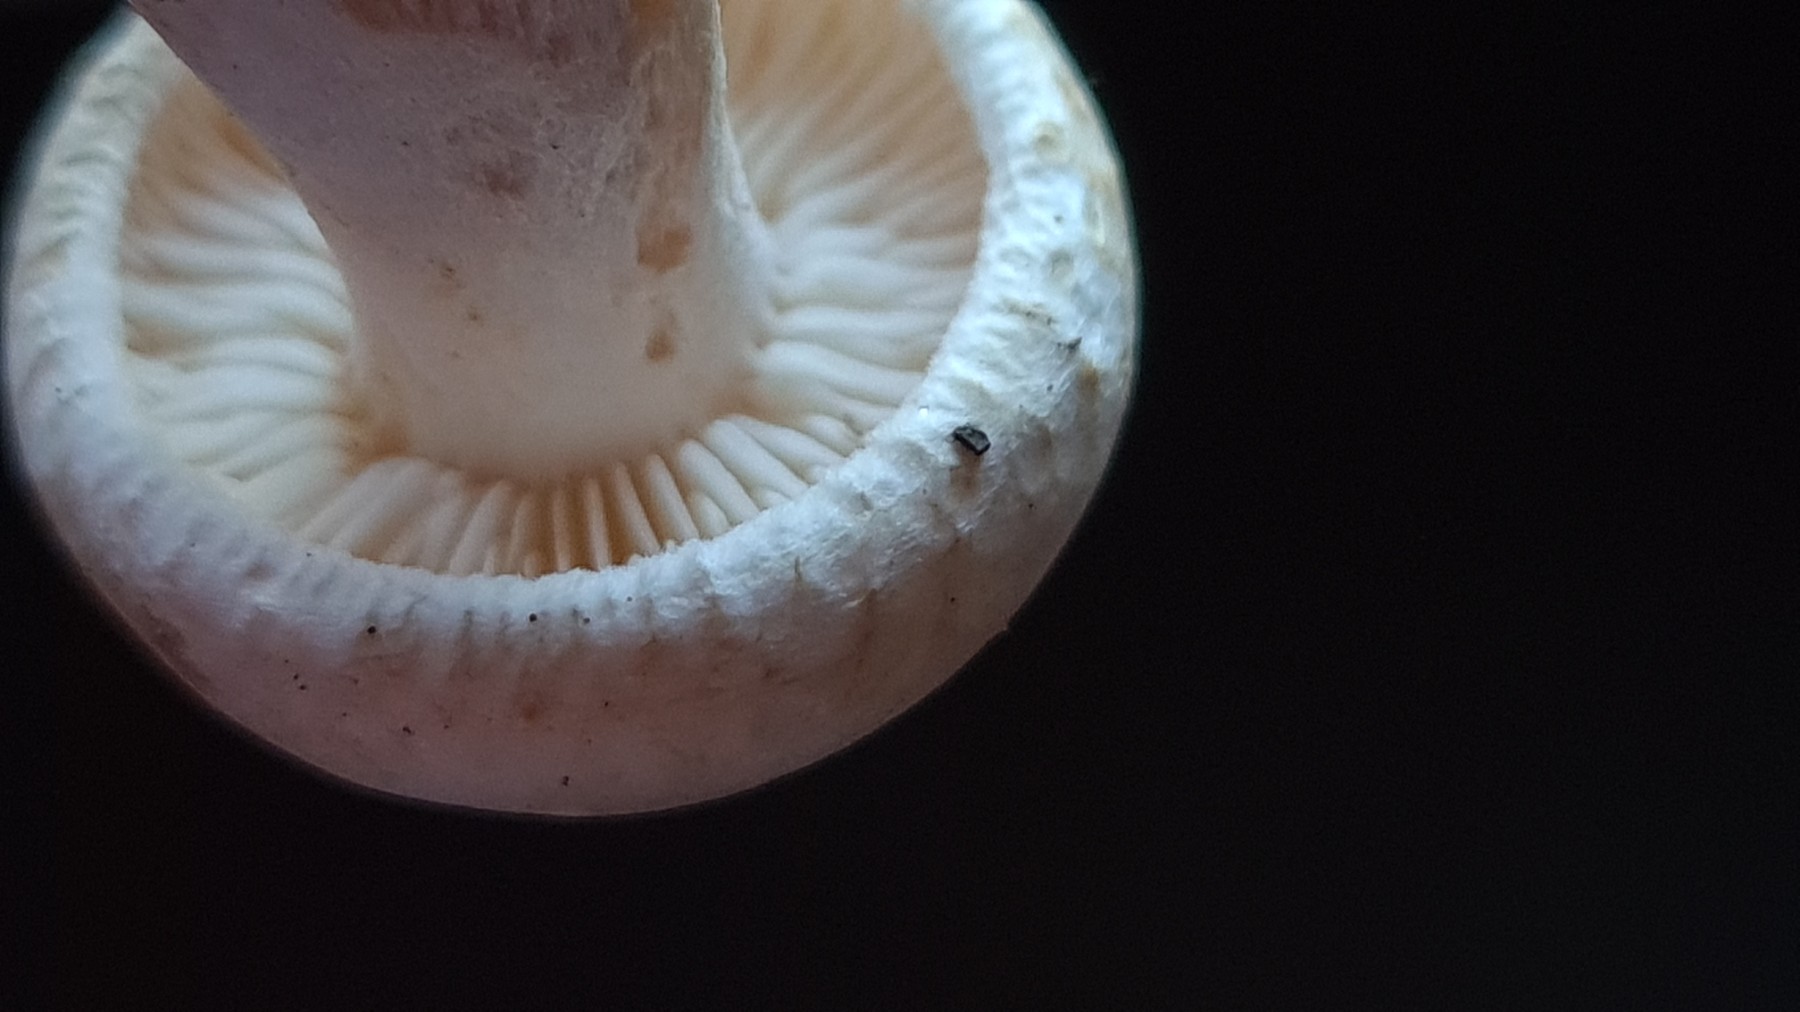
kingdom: Fungi
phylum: Basidiomycota
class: Agaricomycetes
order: Agaricales
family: Tricholomataceae
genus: Tricholoma
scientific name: Tricholoma stiparophyllum
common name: hvid ridderhat
